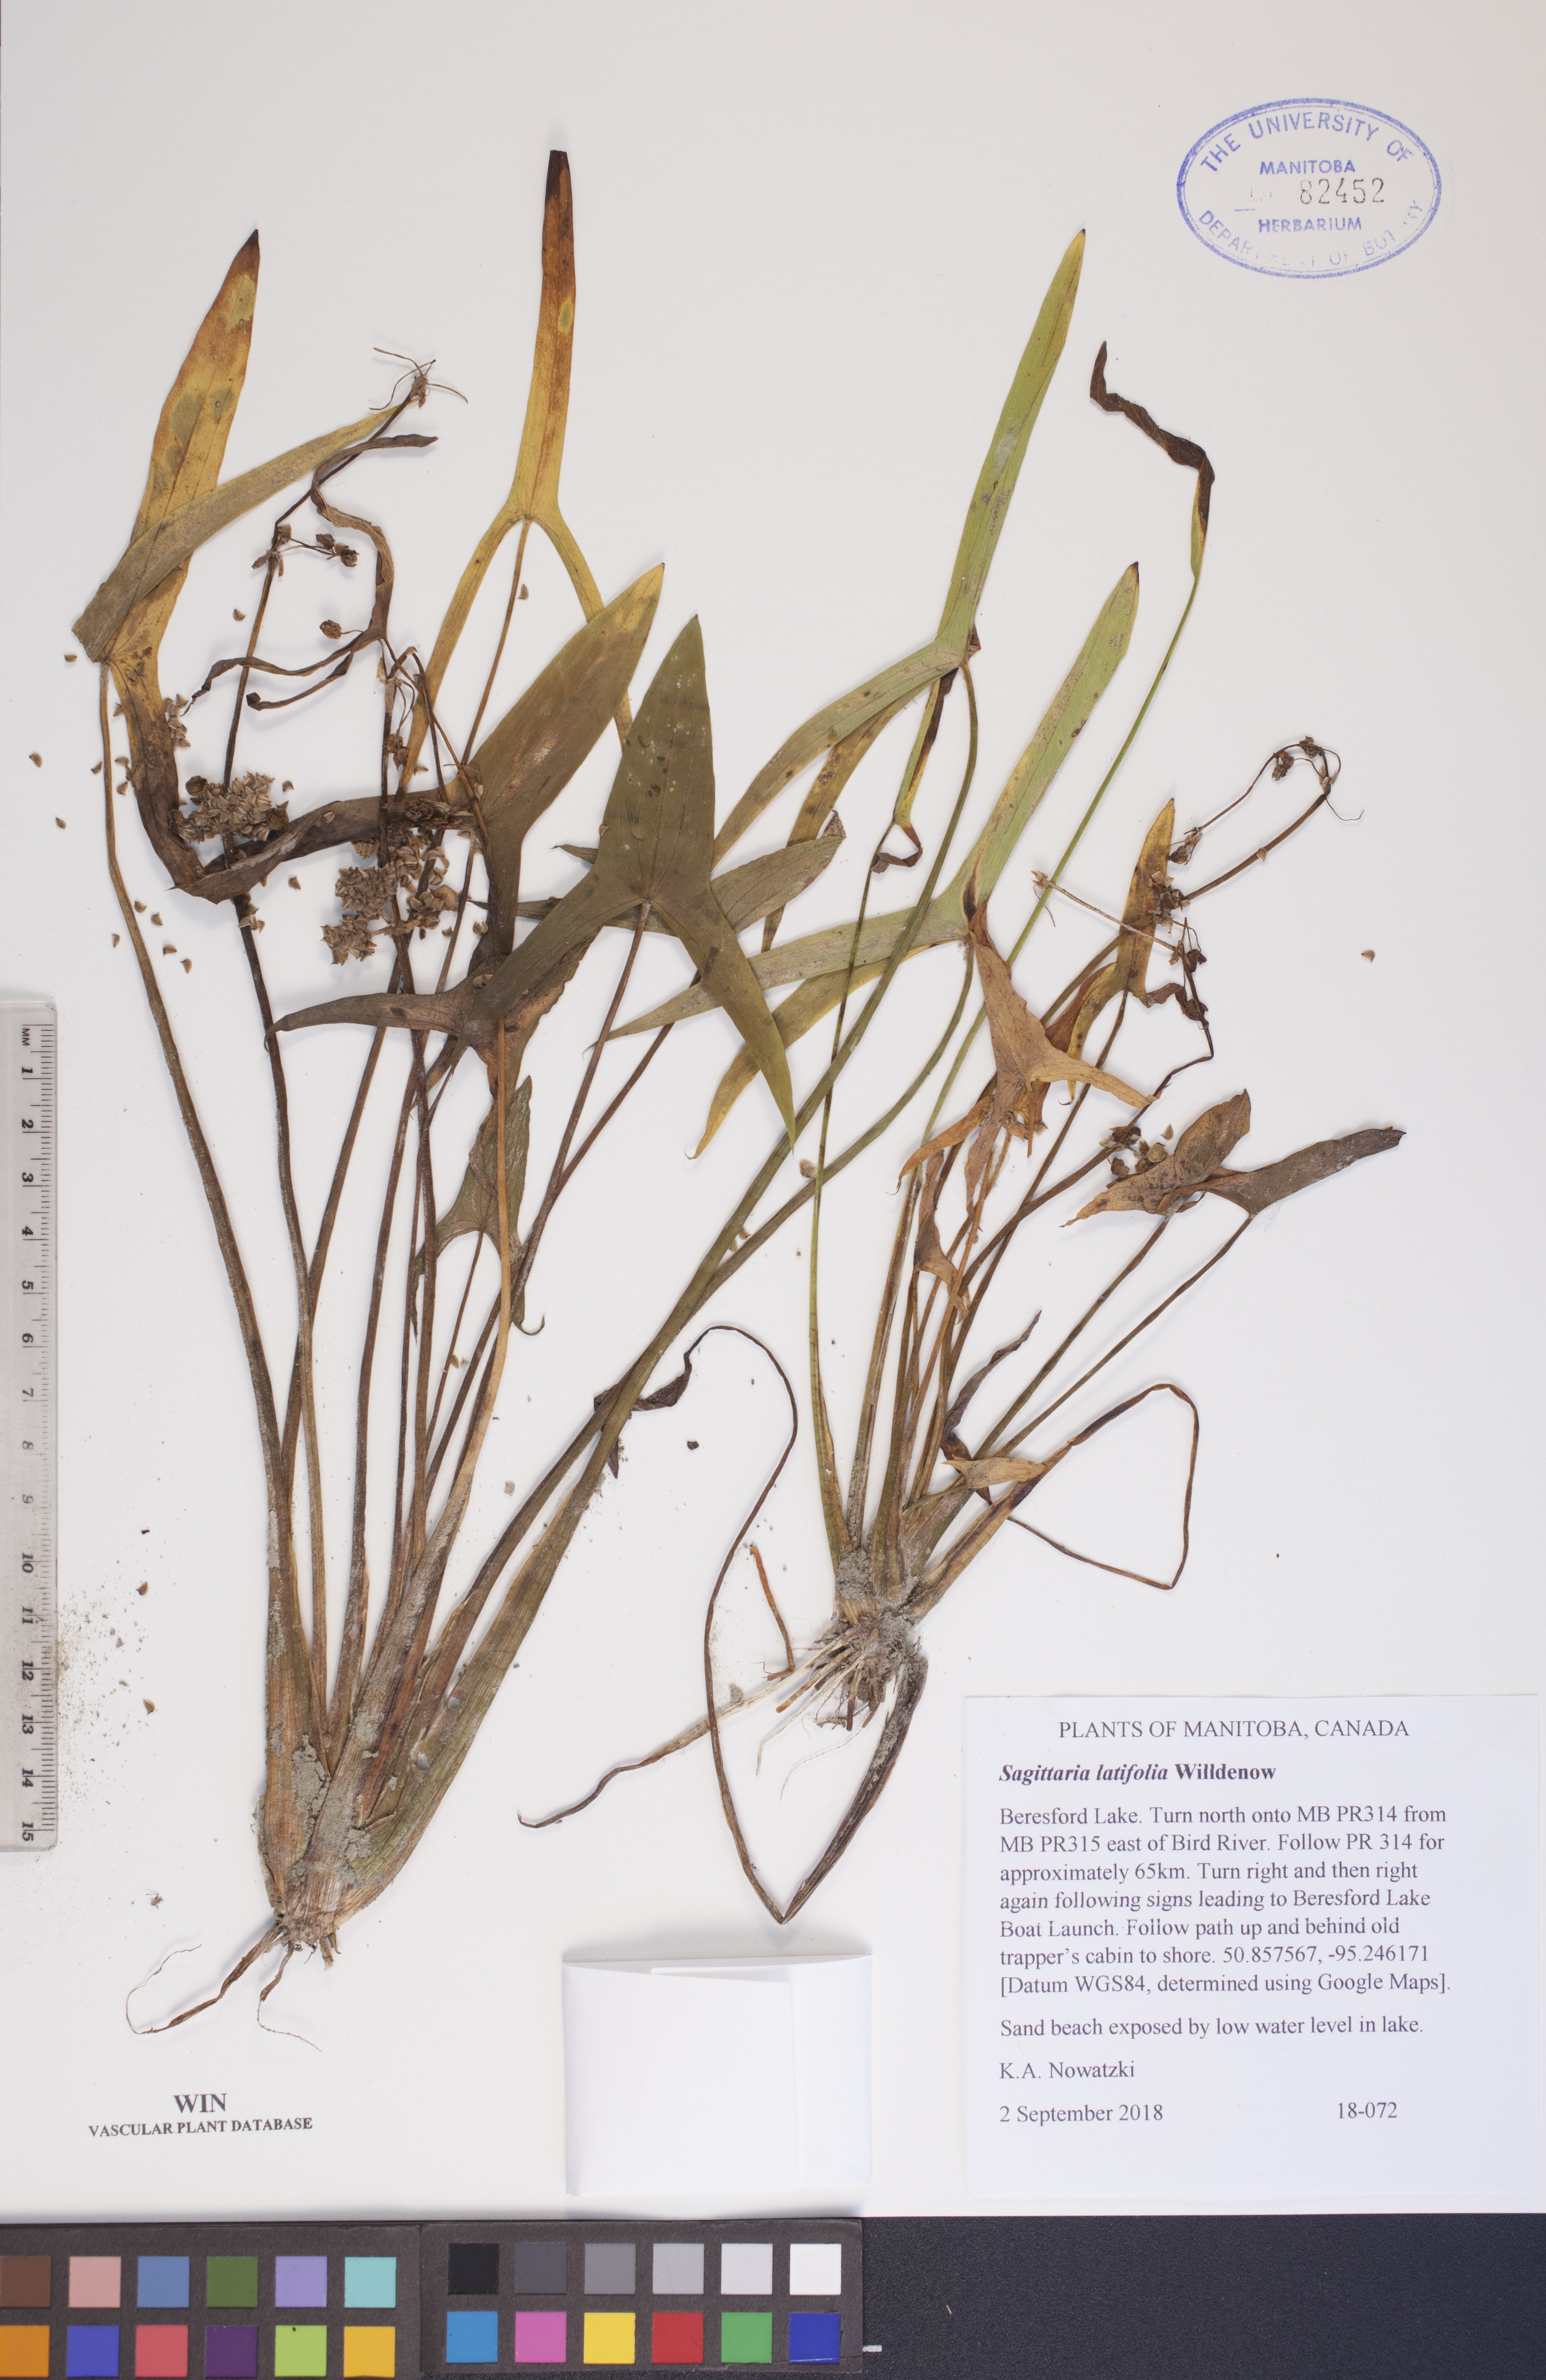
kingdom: Plantae
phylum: Tracheophyta
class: Liliopsida
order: Alismatales
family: Alismataceae
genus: Sagittaria
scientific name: Sagittaria latifolia
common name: Duck-potato
